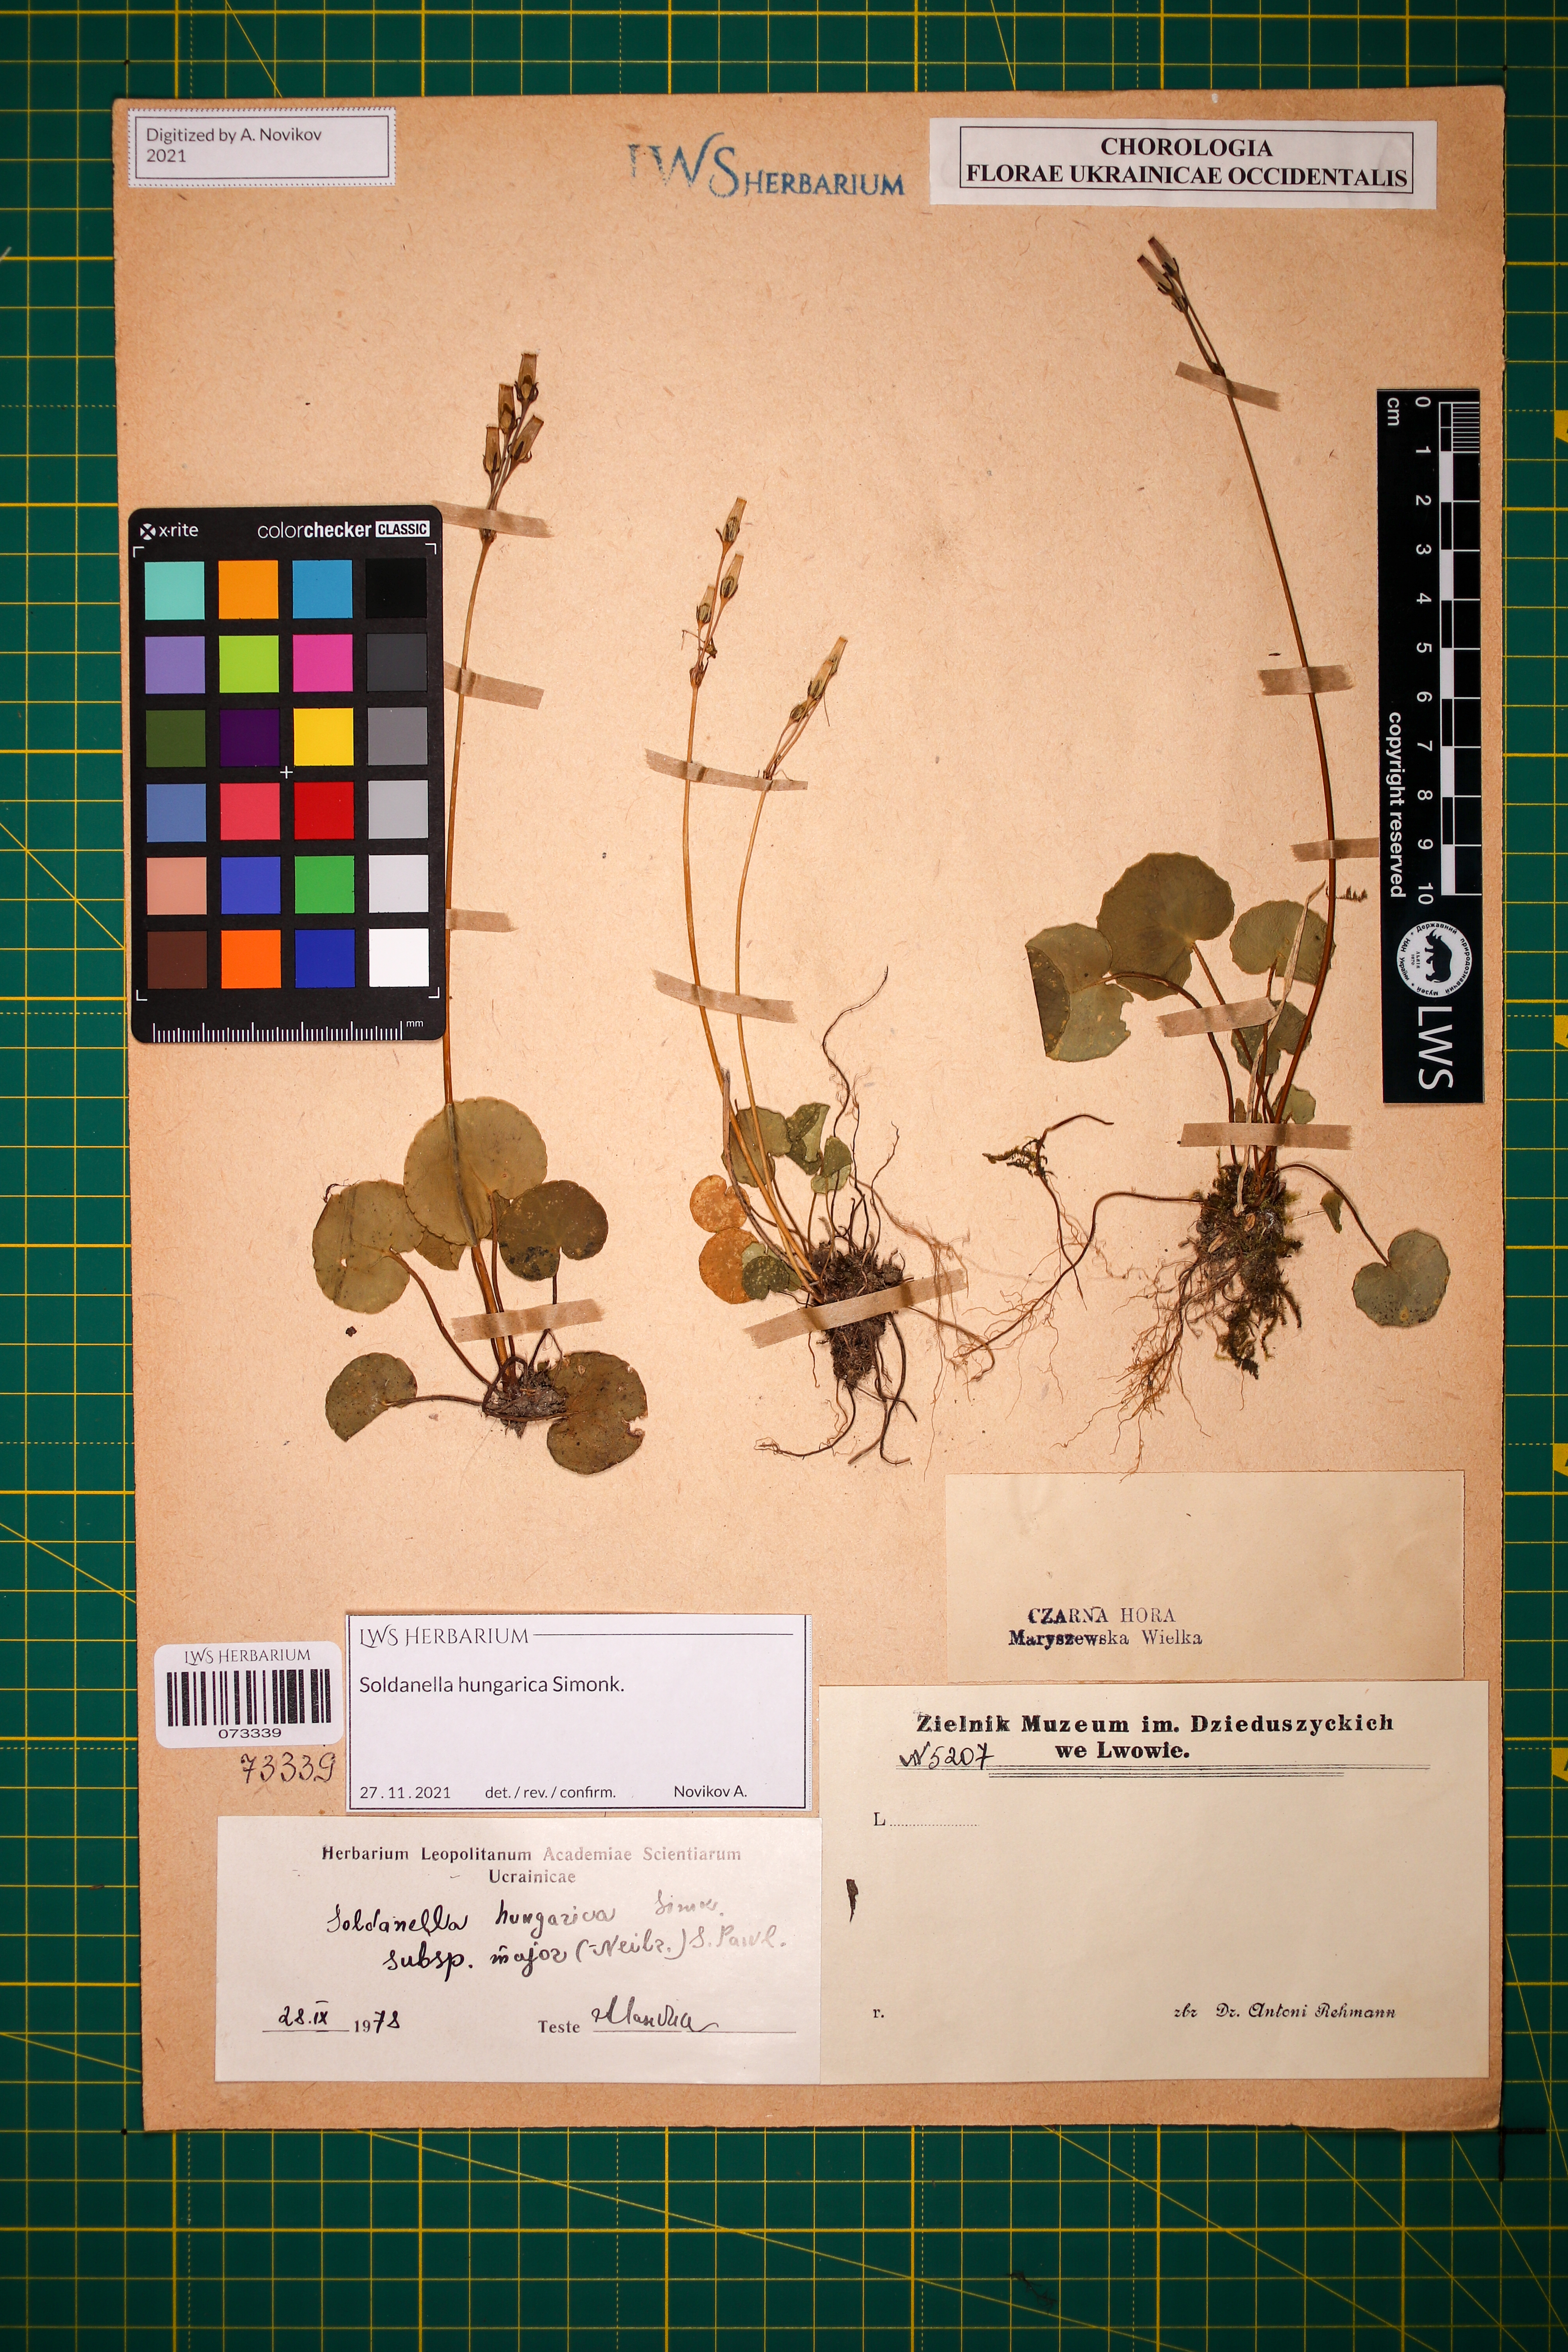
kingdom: Plantae
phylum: Tracheophyta
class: Magnoliopsida
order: Ericales
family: Primulaceae
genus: Soldanella
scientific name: Soldanella hungarica
